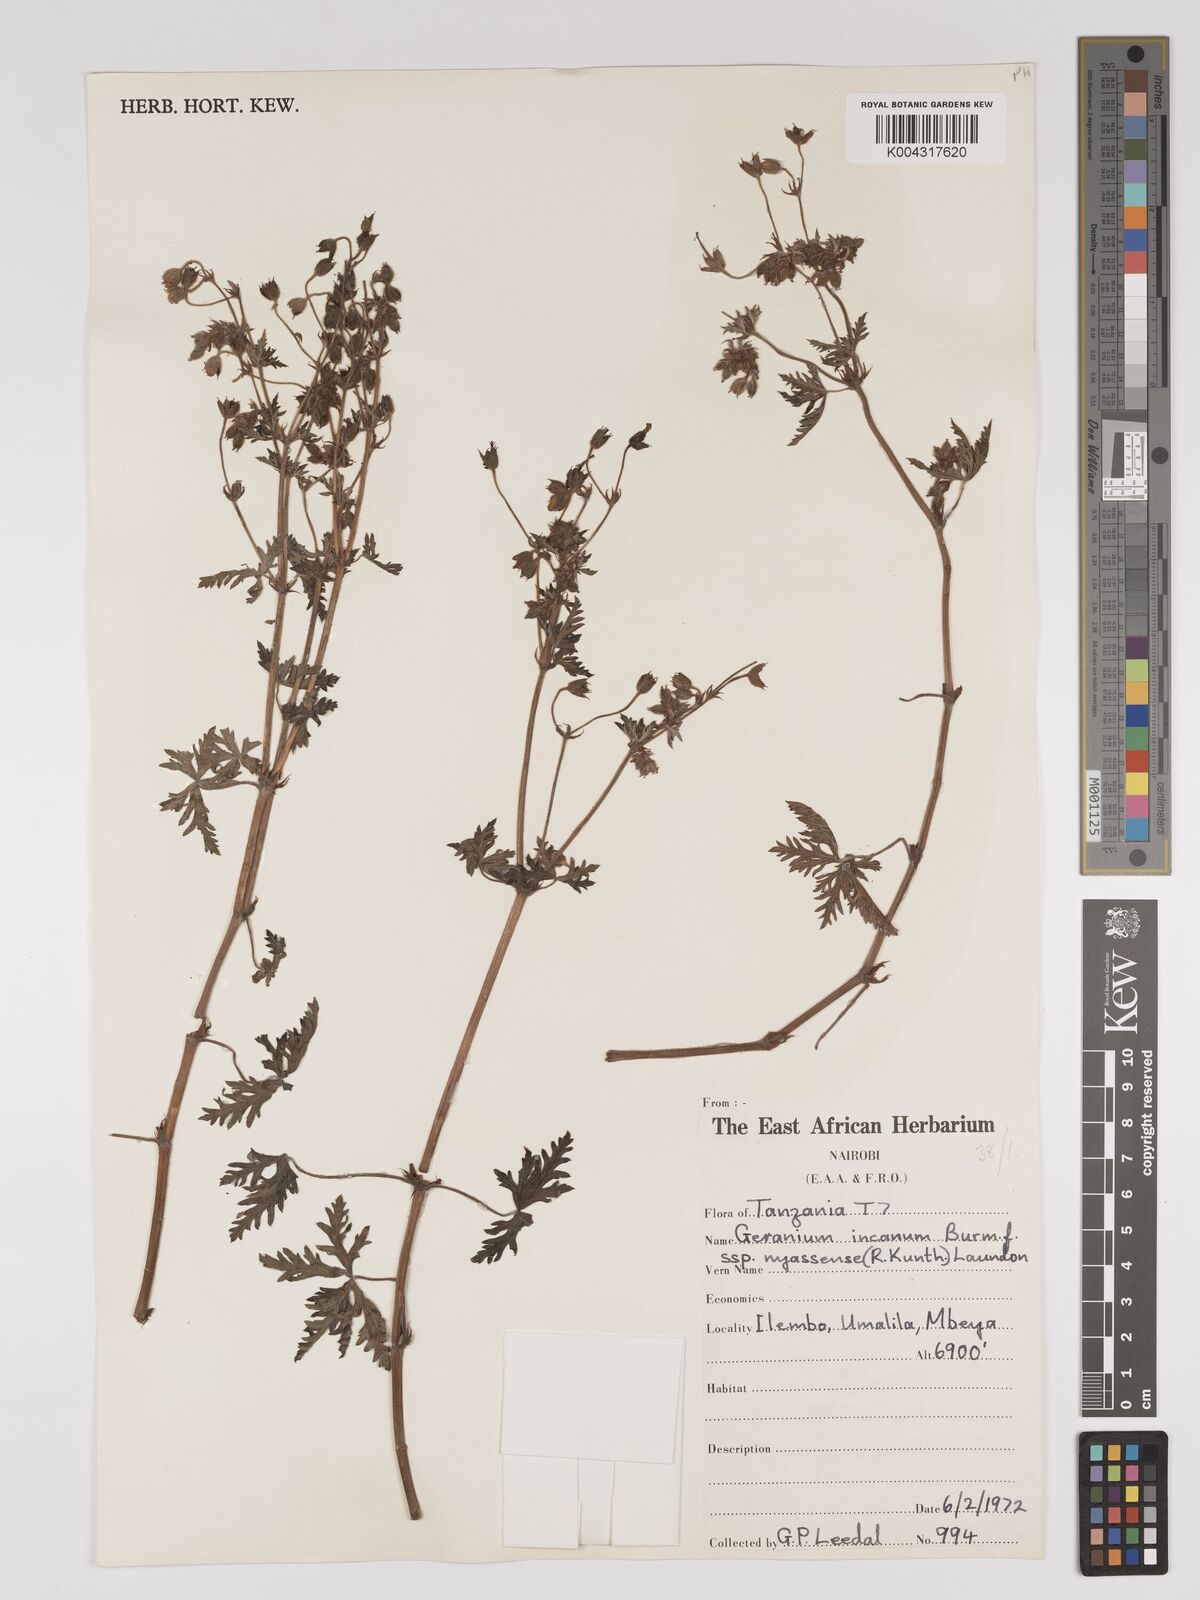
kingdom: Plantae
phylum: Tracheophyta
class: Magnoliopsida
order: Geraniales
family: Geraniaceae
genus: Geranium
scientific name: Geranium incanum
